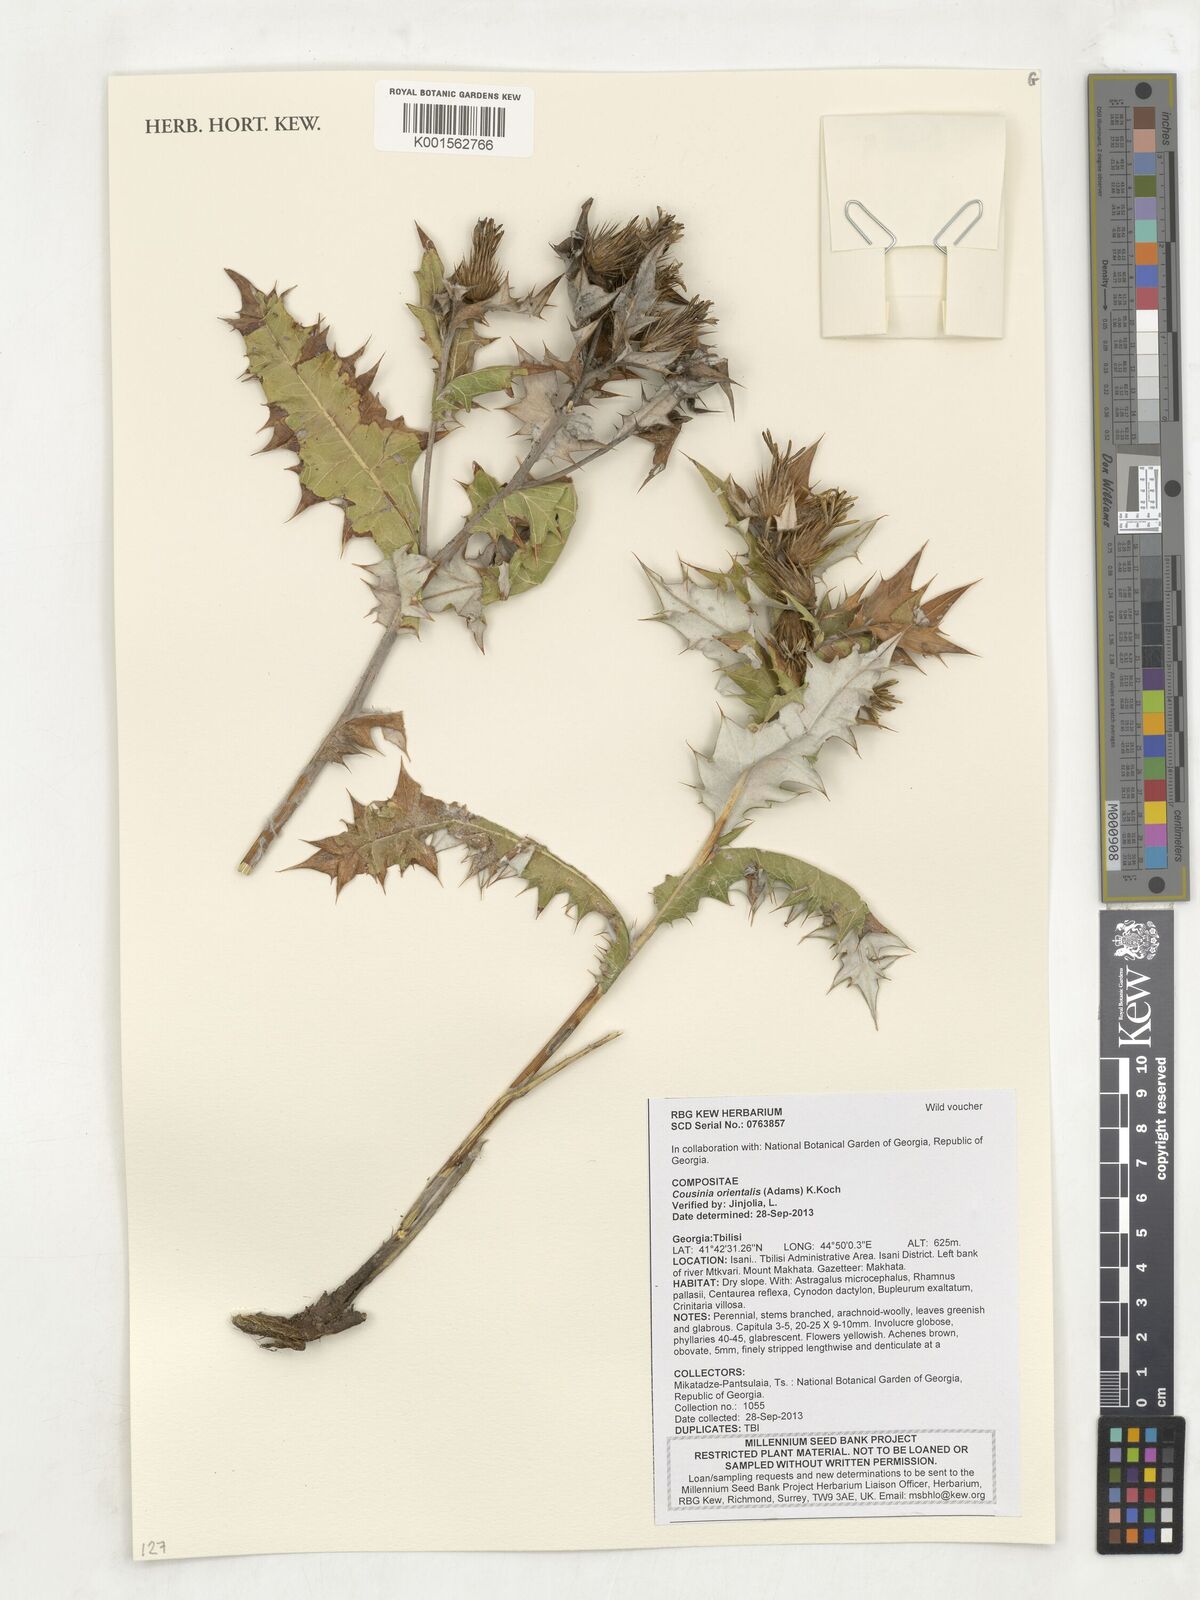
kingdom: Plantae
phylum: Tracheophyta
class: Magnoliopsida
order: Asterales
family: Asteraceae
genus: Cousinia
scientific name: Cousinia orientalis
